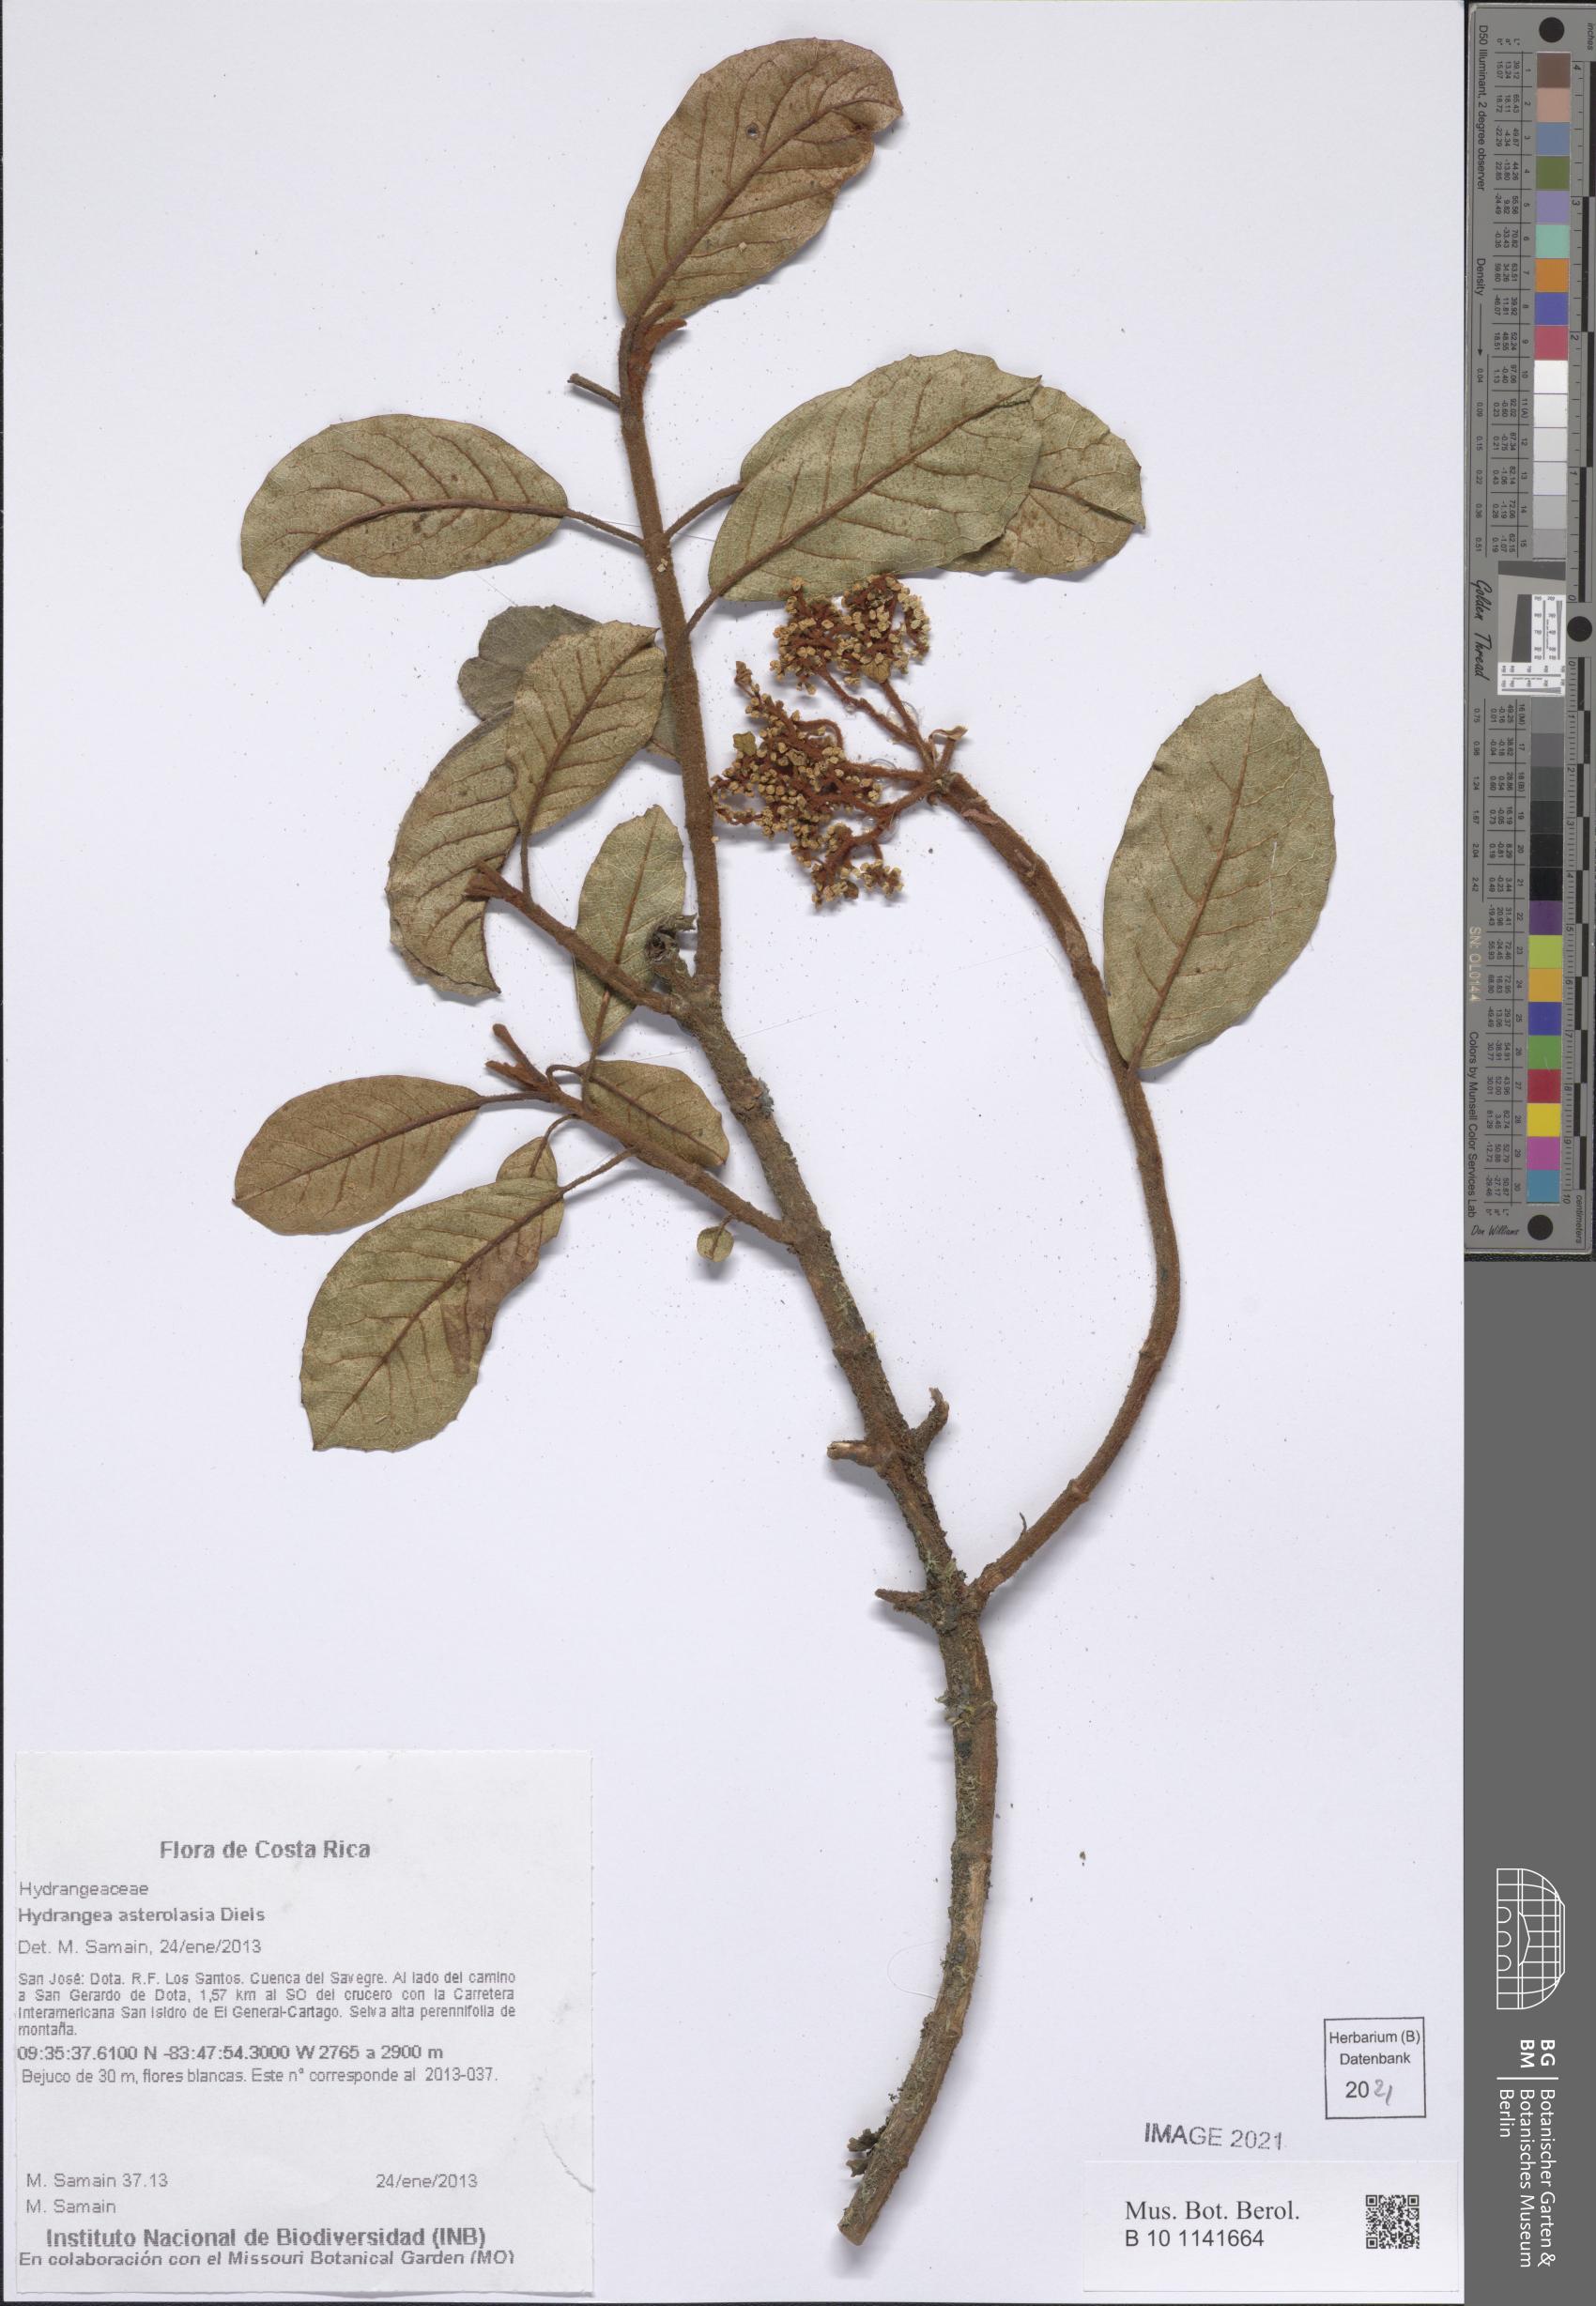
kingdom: Plantae
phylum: Tracheophyta
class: Magnoliopsida
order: Cornales
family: Hydrangeaceae
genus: Hydrangea
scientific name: Hydrangea asterolasia
